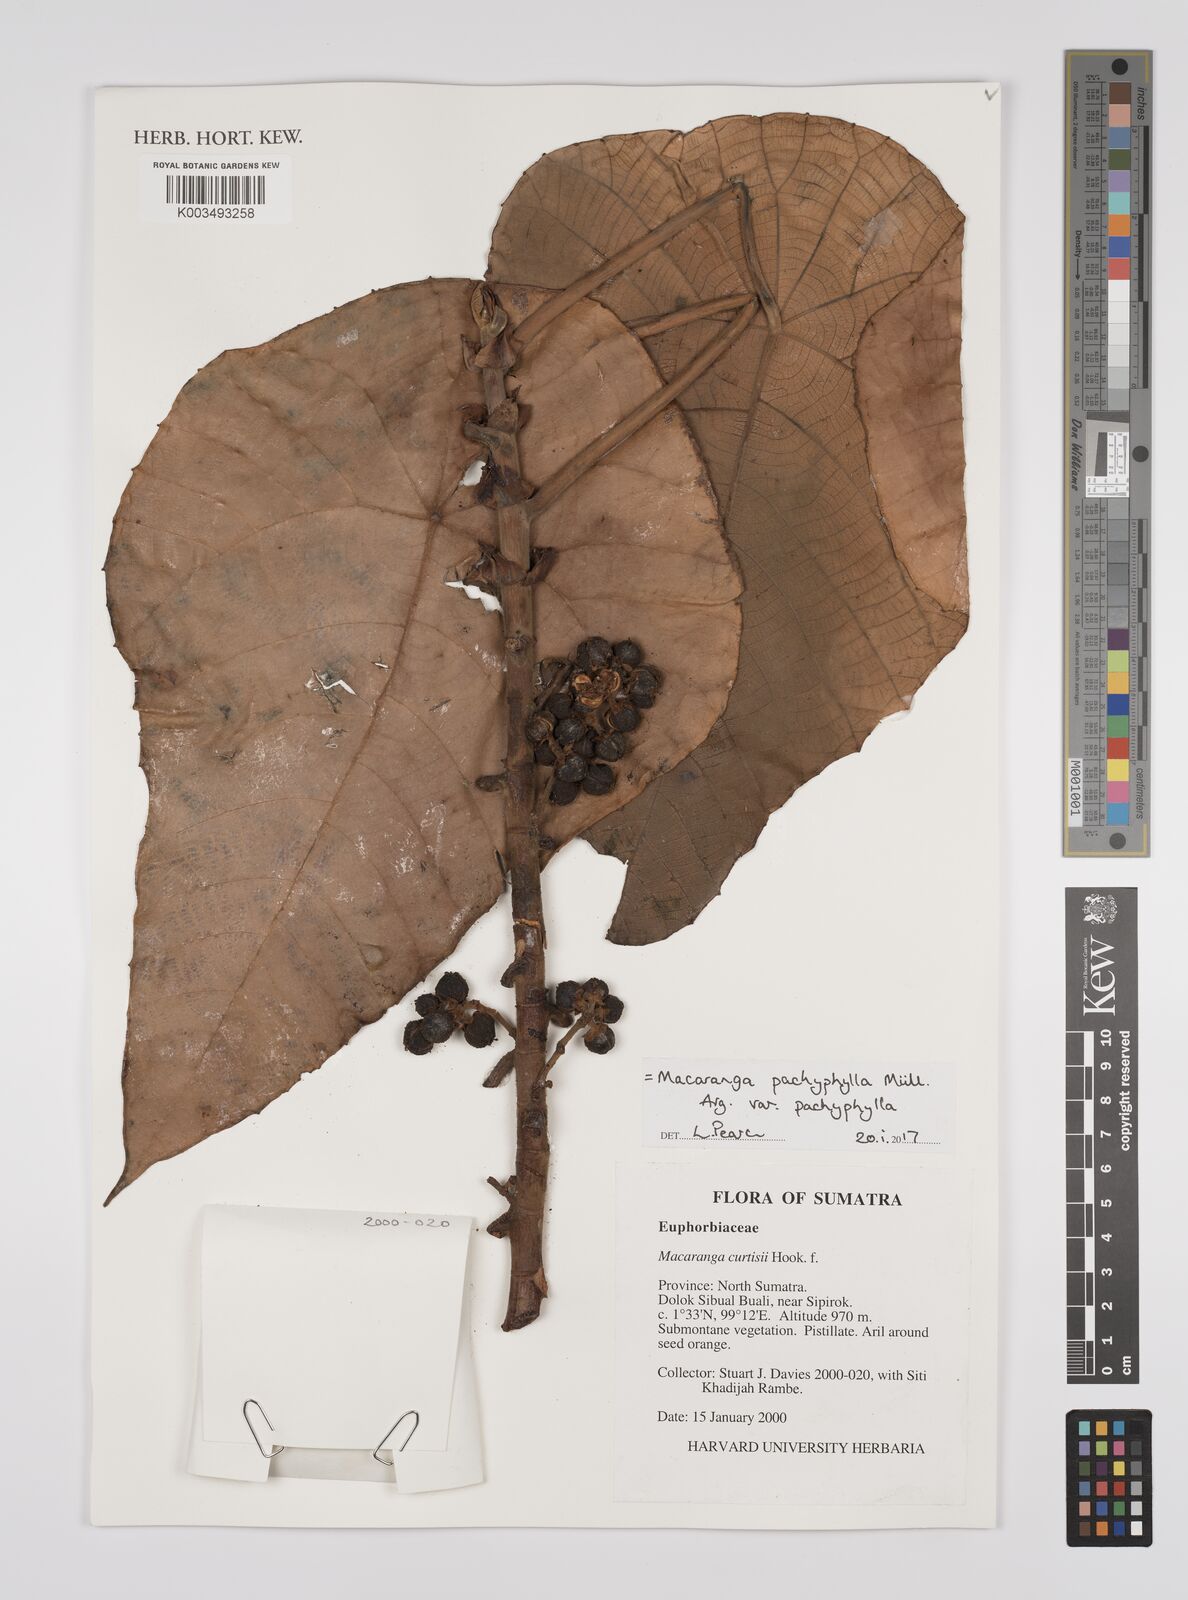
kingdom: Plantae
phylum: Tracheophyta
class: Magnoliopsida
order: Malpighiales
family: Euphorbiaceae
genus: Macaranga
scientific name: Macaranga pachyphylla
